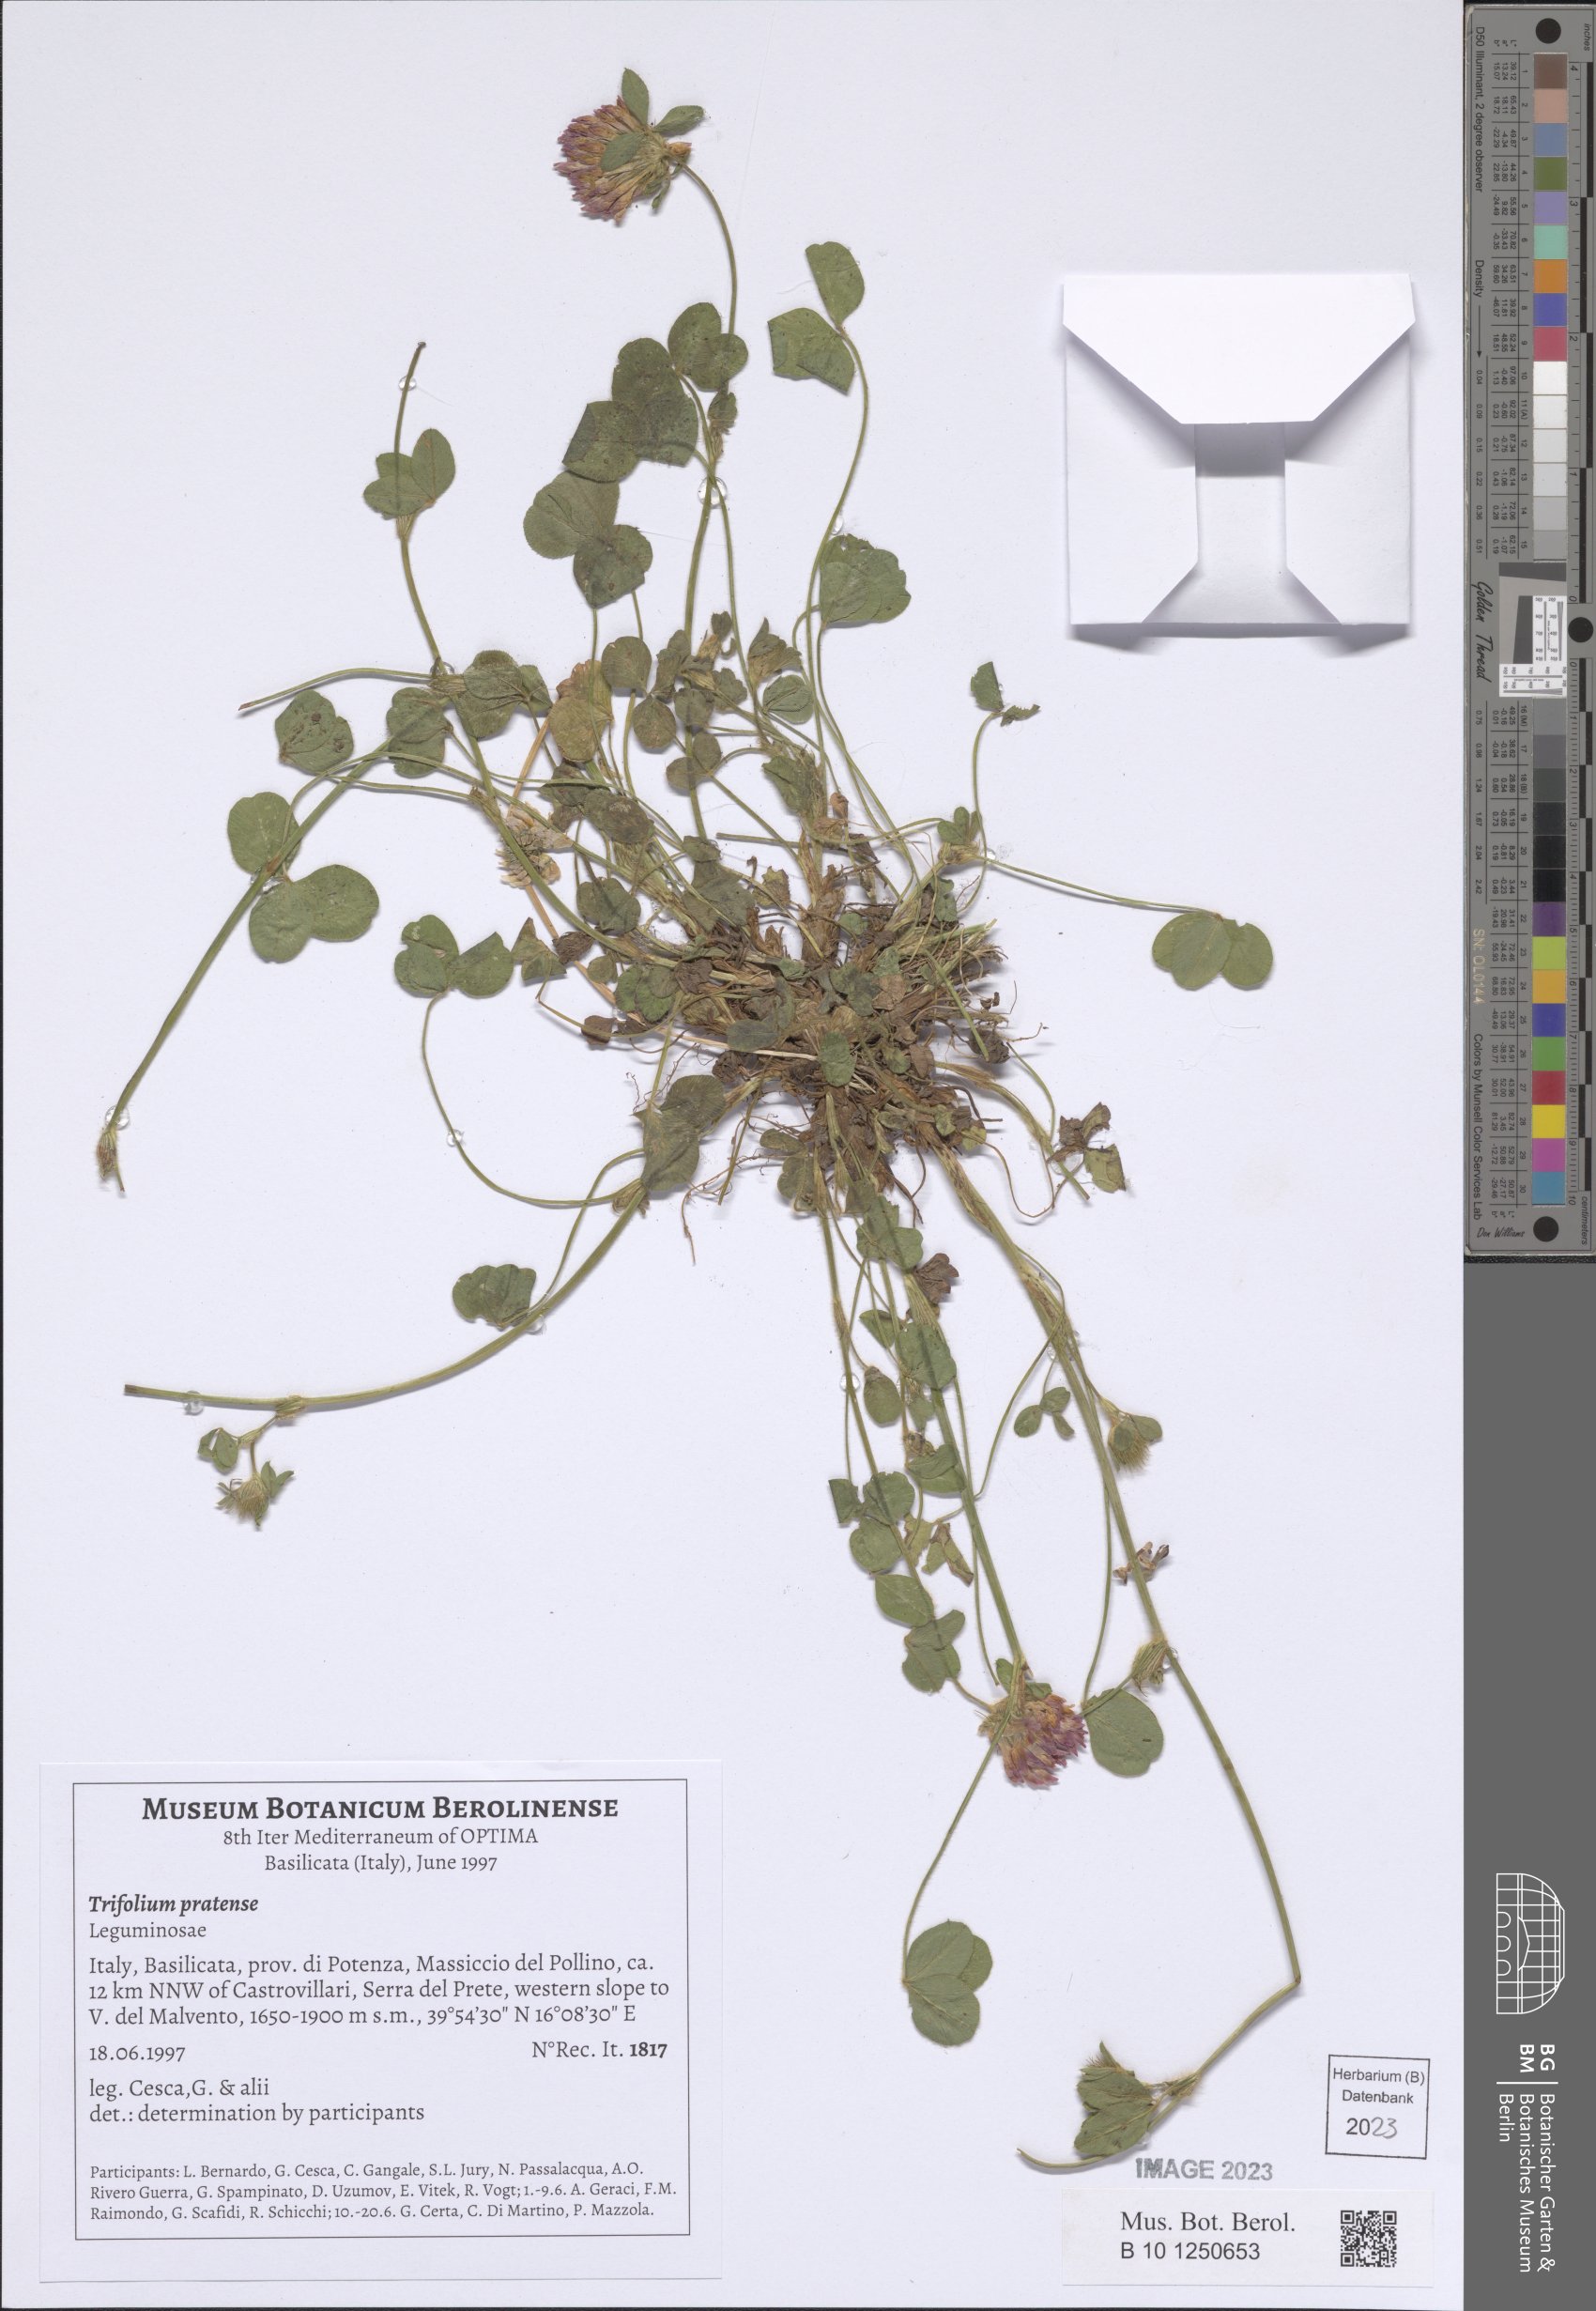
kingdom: Plantae
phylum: Tracheophyta
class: Magnoliopsida
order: Fabales
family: Fabaceae
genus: Trifolium
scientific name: Trifolium pratense
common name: Red clover
